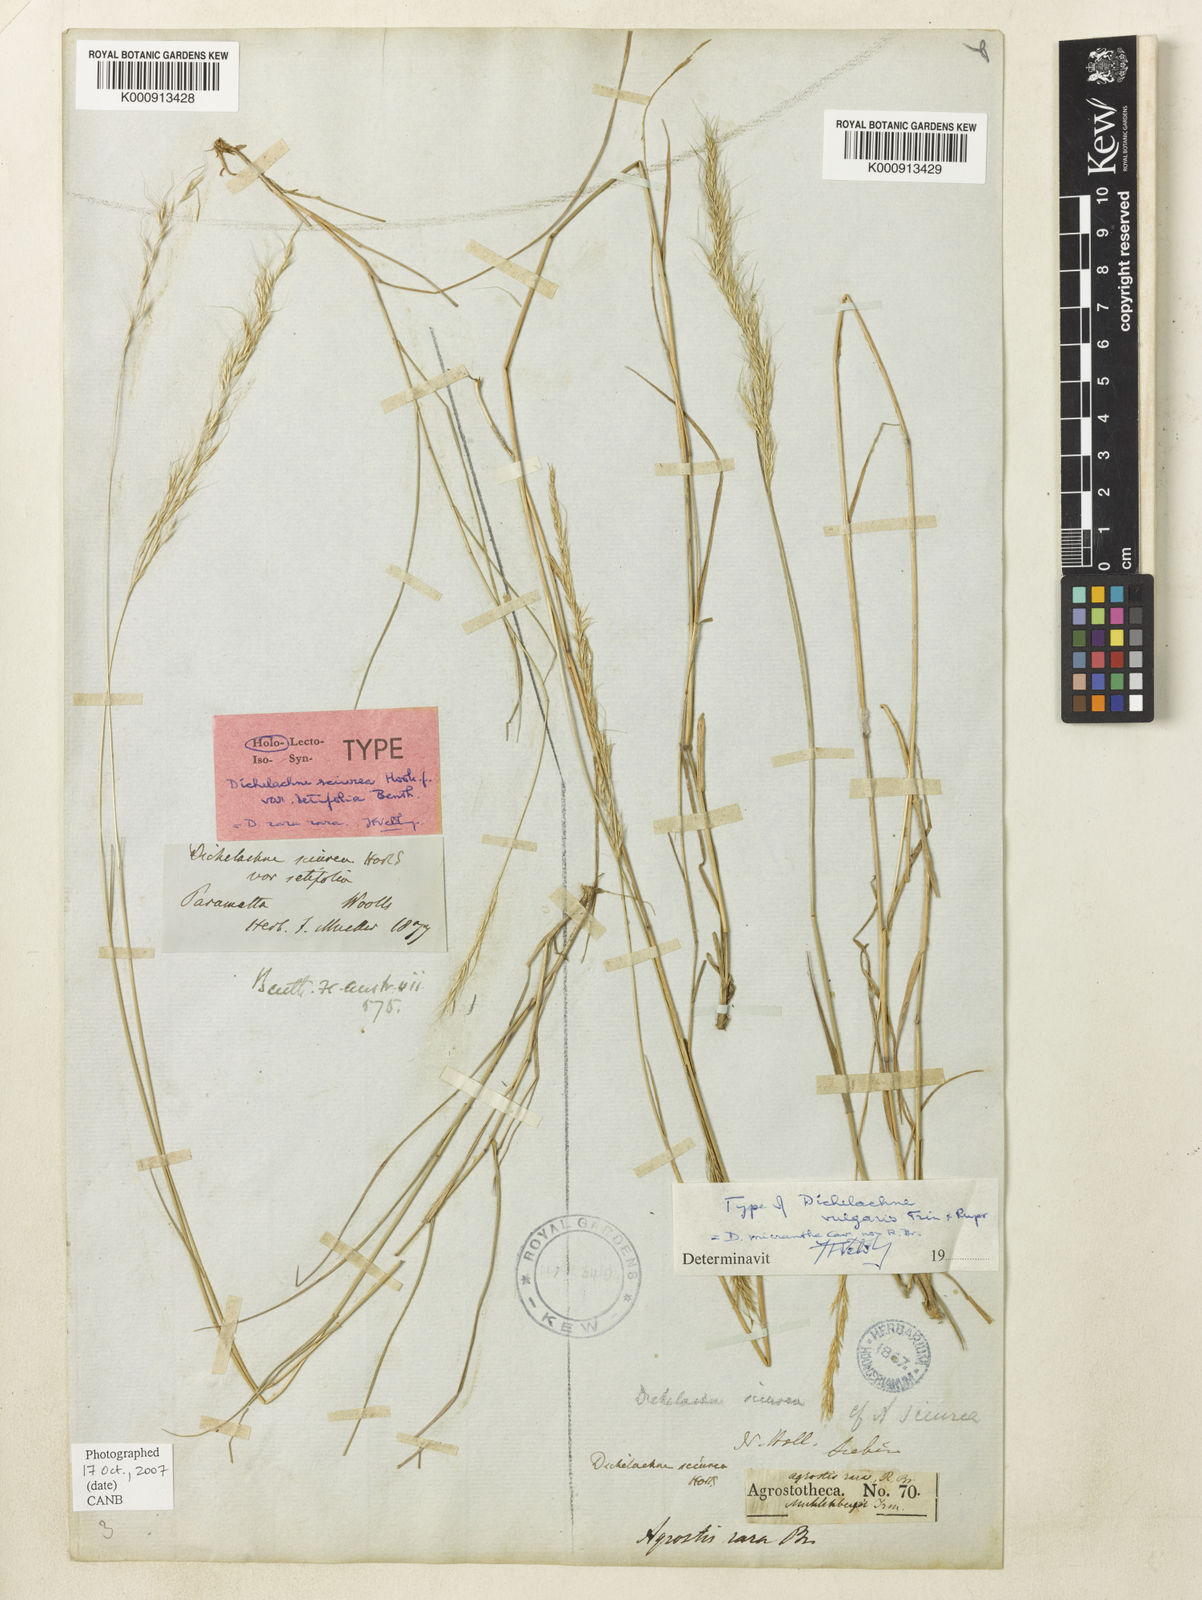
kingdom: Plantae
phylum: Tracheophyta
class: Liliopsida
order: Poales
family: Poaceae
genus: Dichelachne
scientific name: Dichelachne micrantha
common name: Plumegrass
